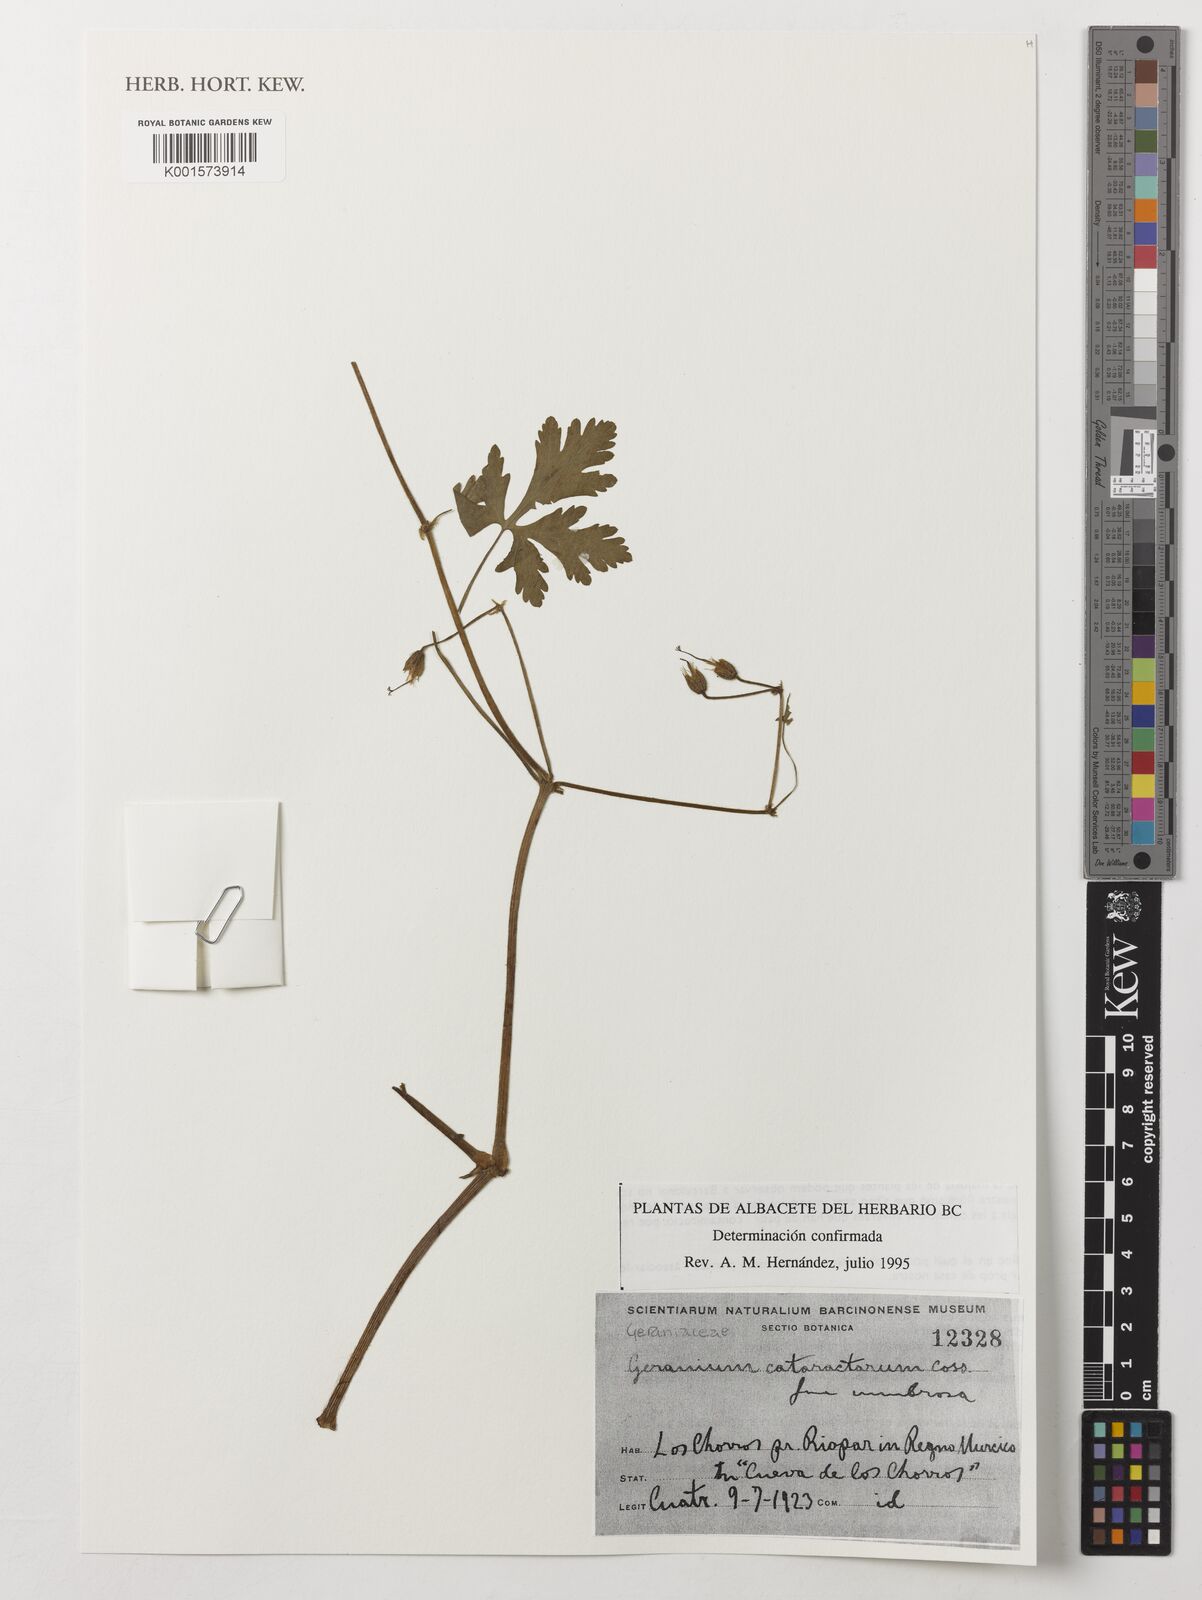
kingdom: Plantae
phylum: Tracheophyta
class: Magnoliopsida
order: Geraniales
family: Geraniaceae
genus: Geranium
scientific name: Geranium cataractarum
